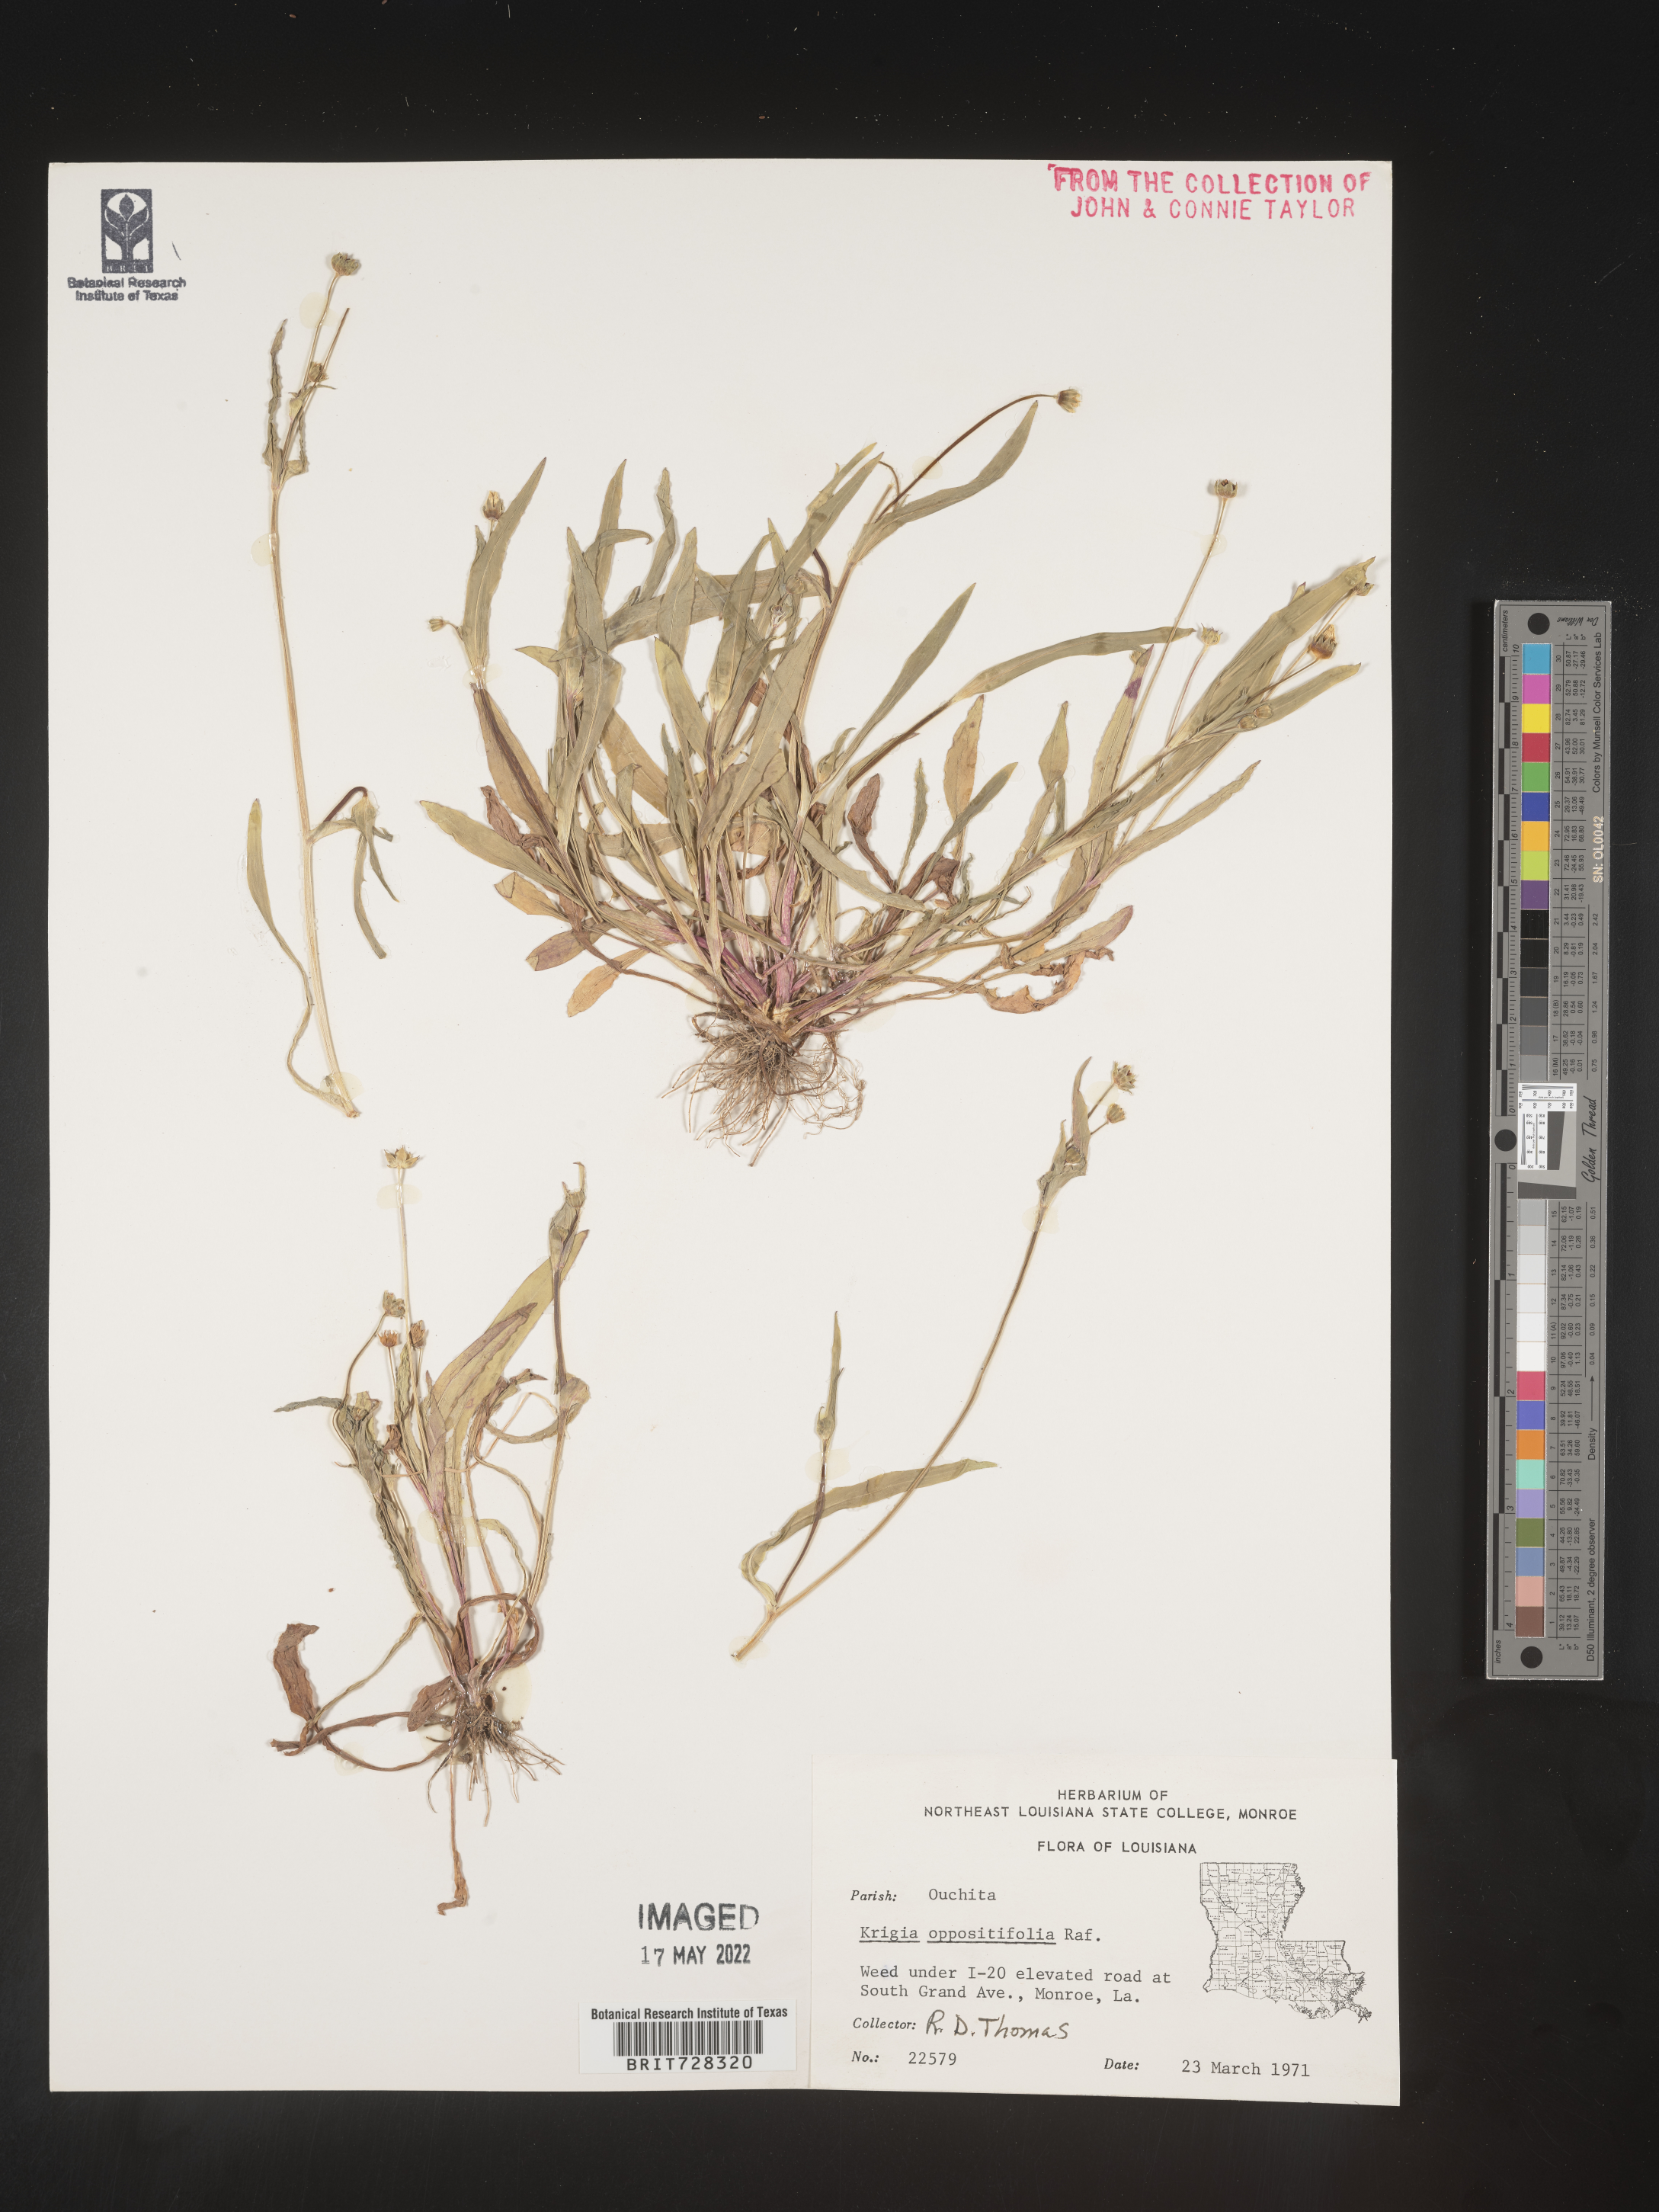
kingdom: Plantae
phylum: Tracheophyta
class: Magnoliopsida
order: Asterales
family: Asteraceae
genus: Krigia
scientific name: Krigia caespitosa
